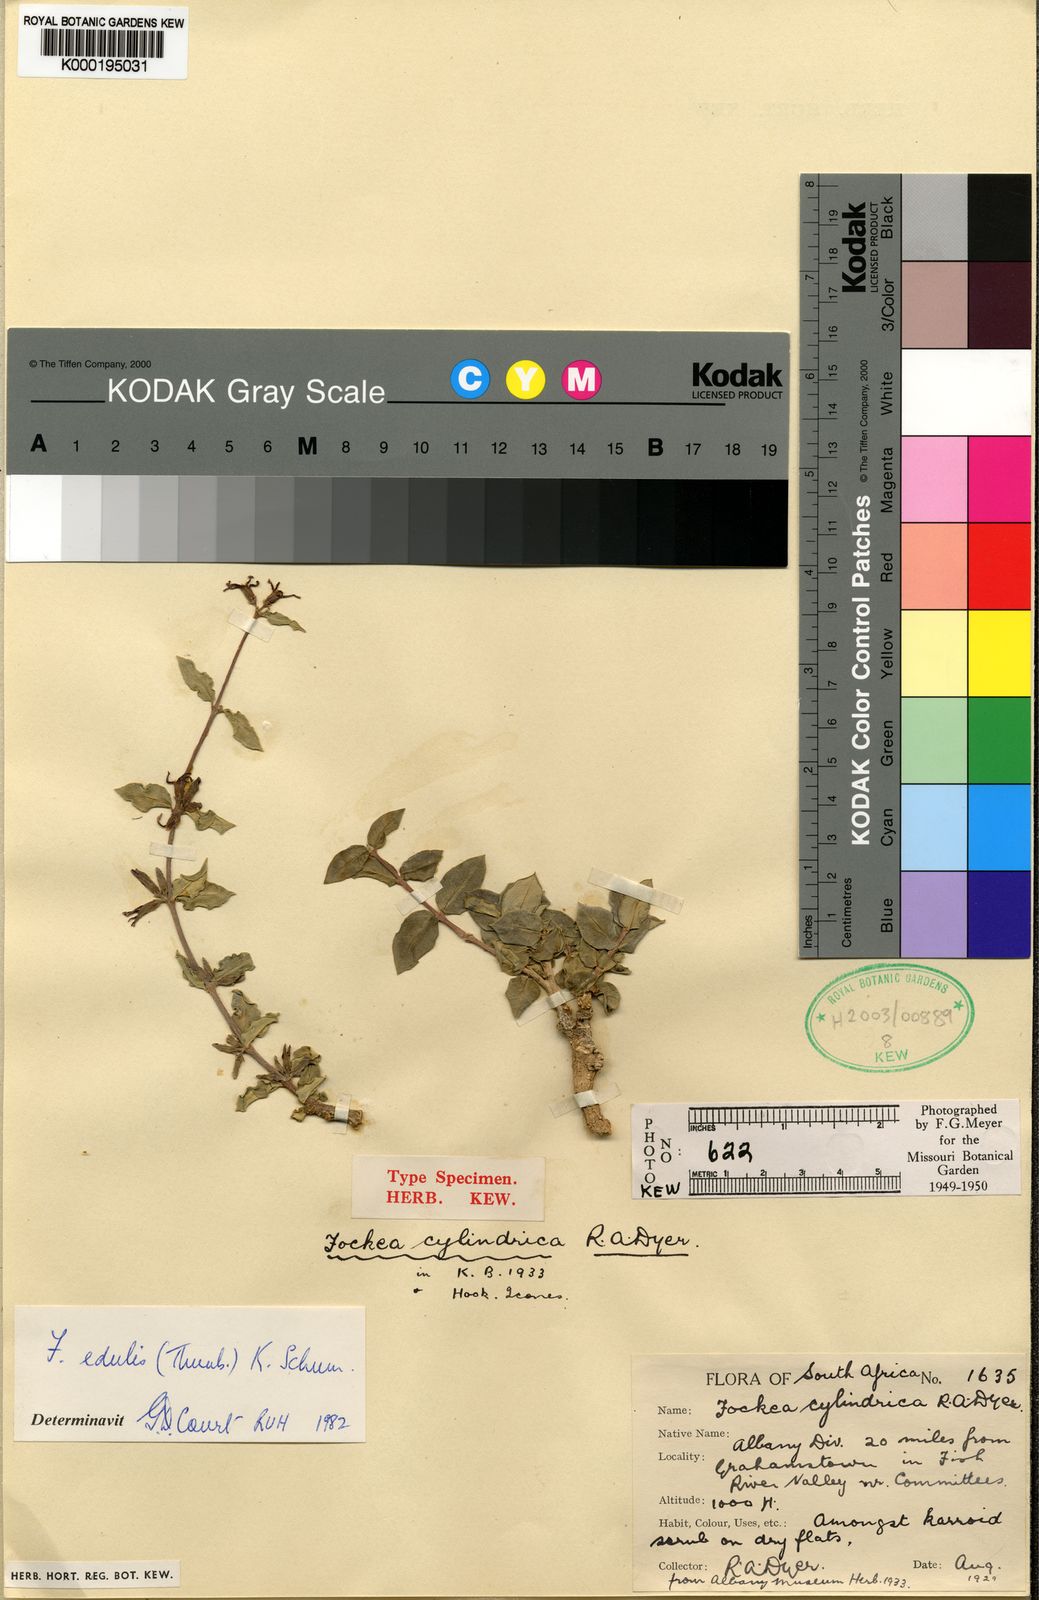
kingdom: Plantae
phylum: Tracheophyta
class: Magnoliopsida
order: Gentianales
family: Apocynaceae
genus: Fockea
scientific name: Fockea edulis
